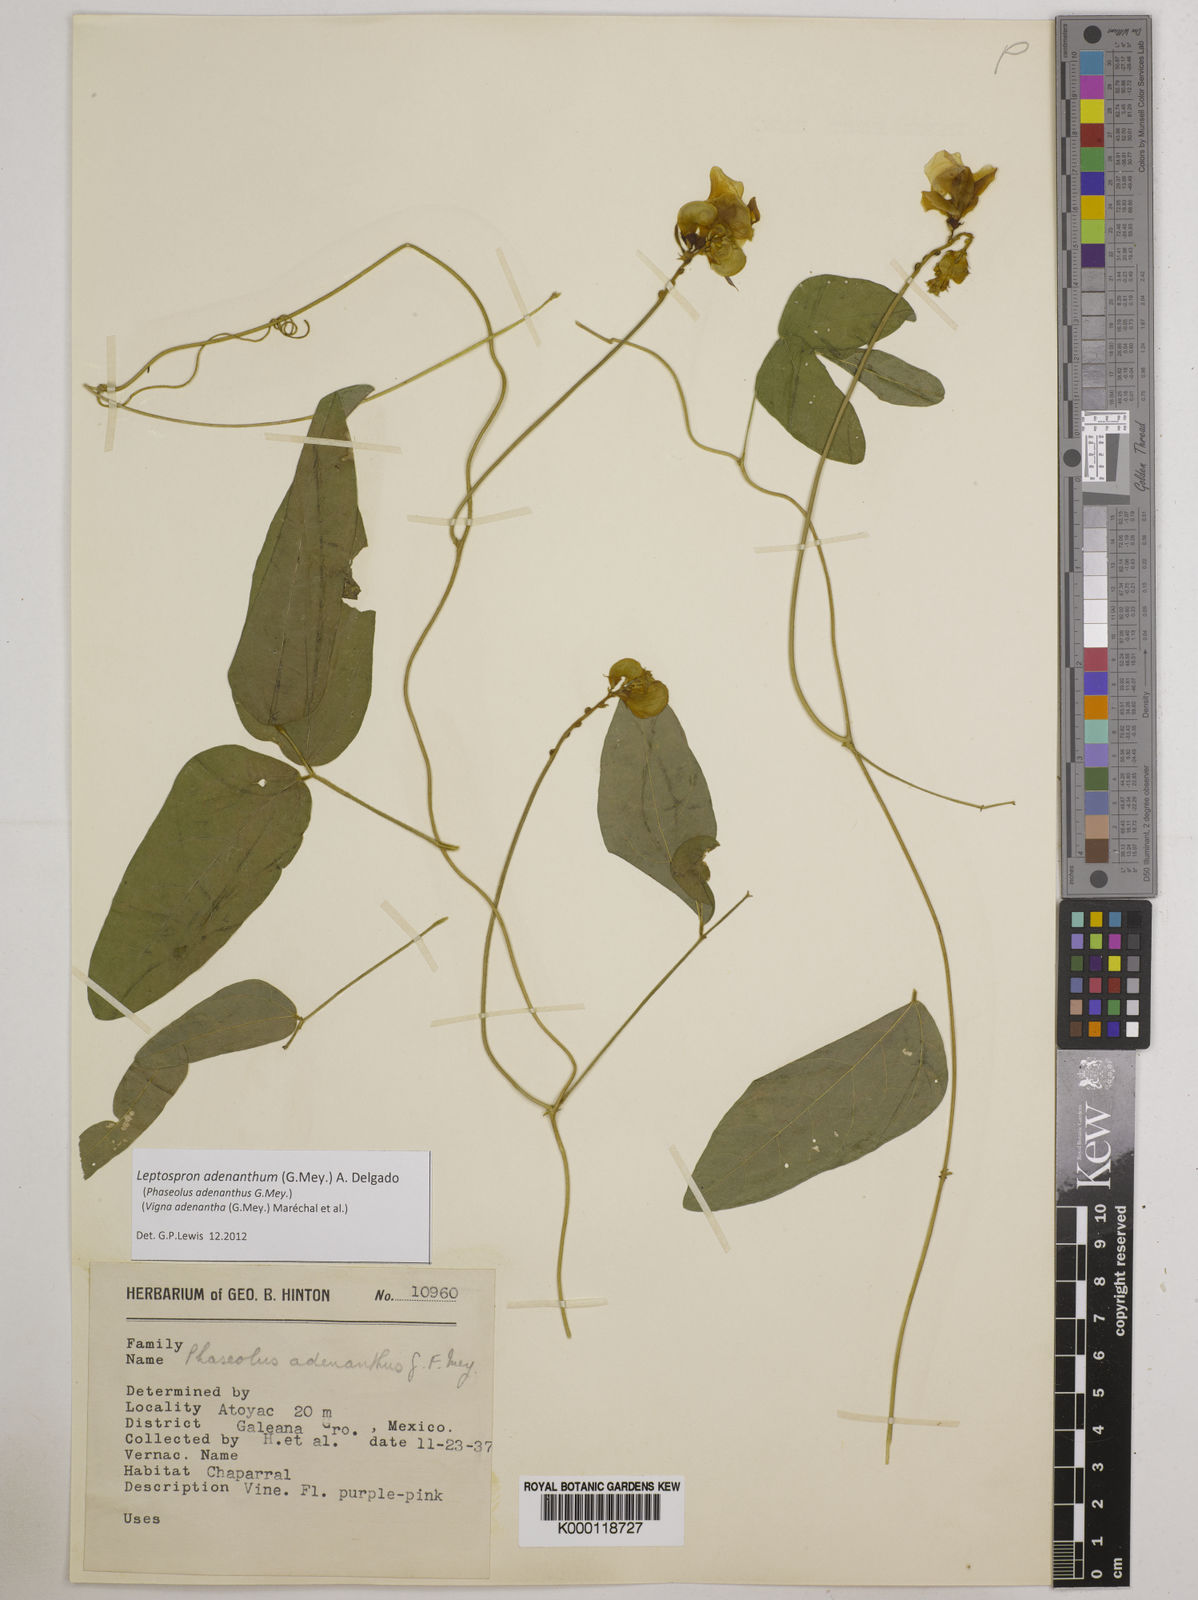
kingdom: Plantae
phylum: Tracheophyta
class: Magnoliopsida
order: Fabales
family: Fabaceae
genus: Leptospron
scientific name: Leptospron
